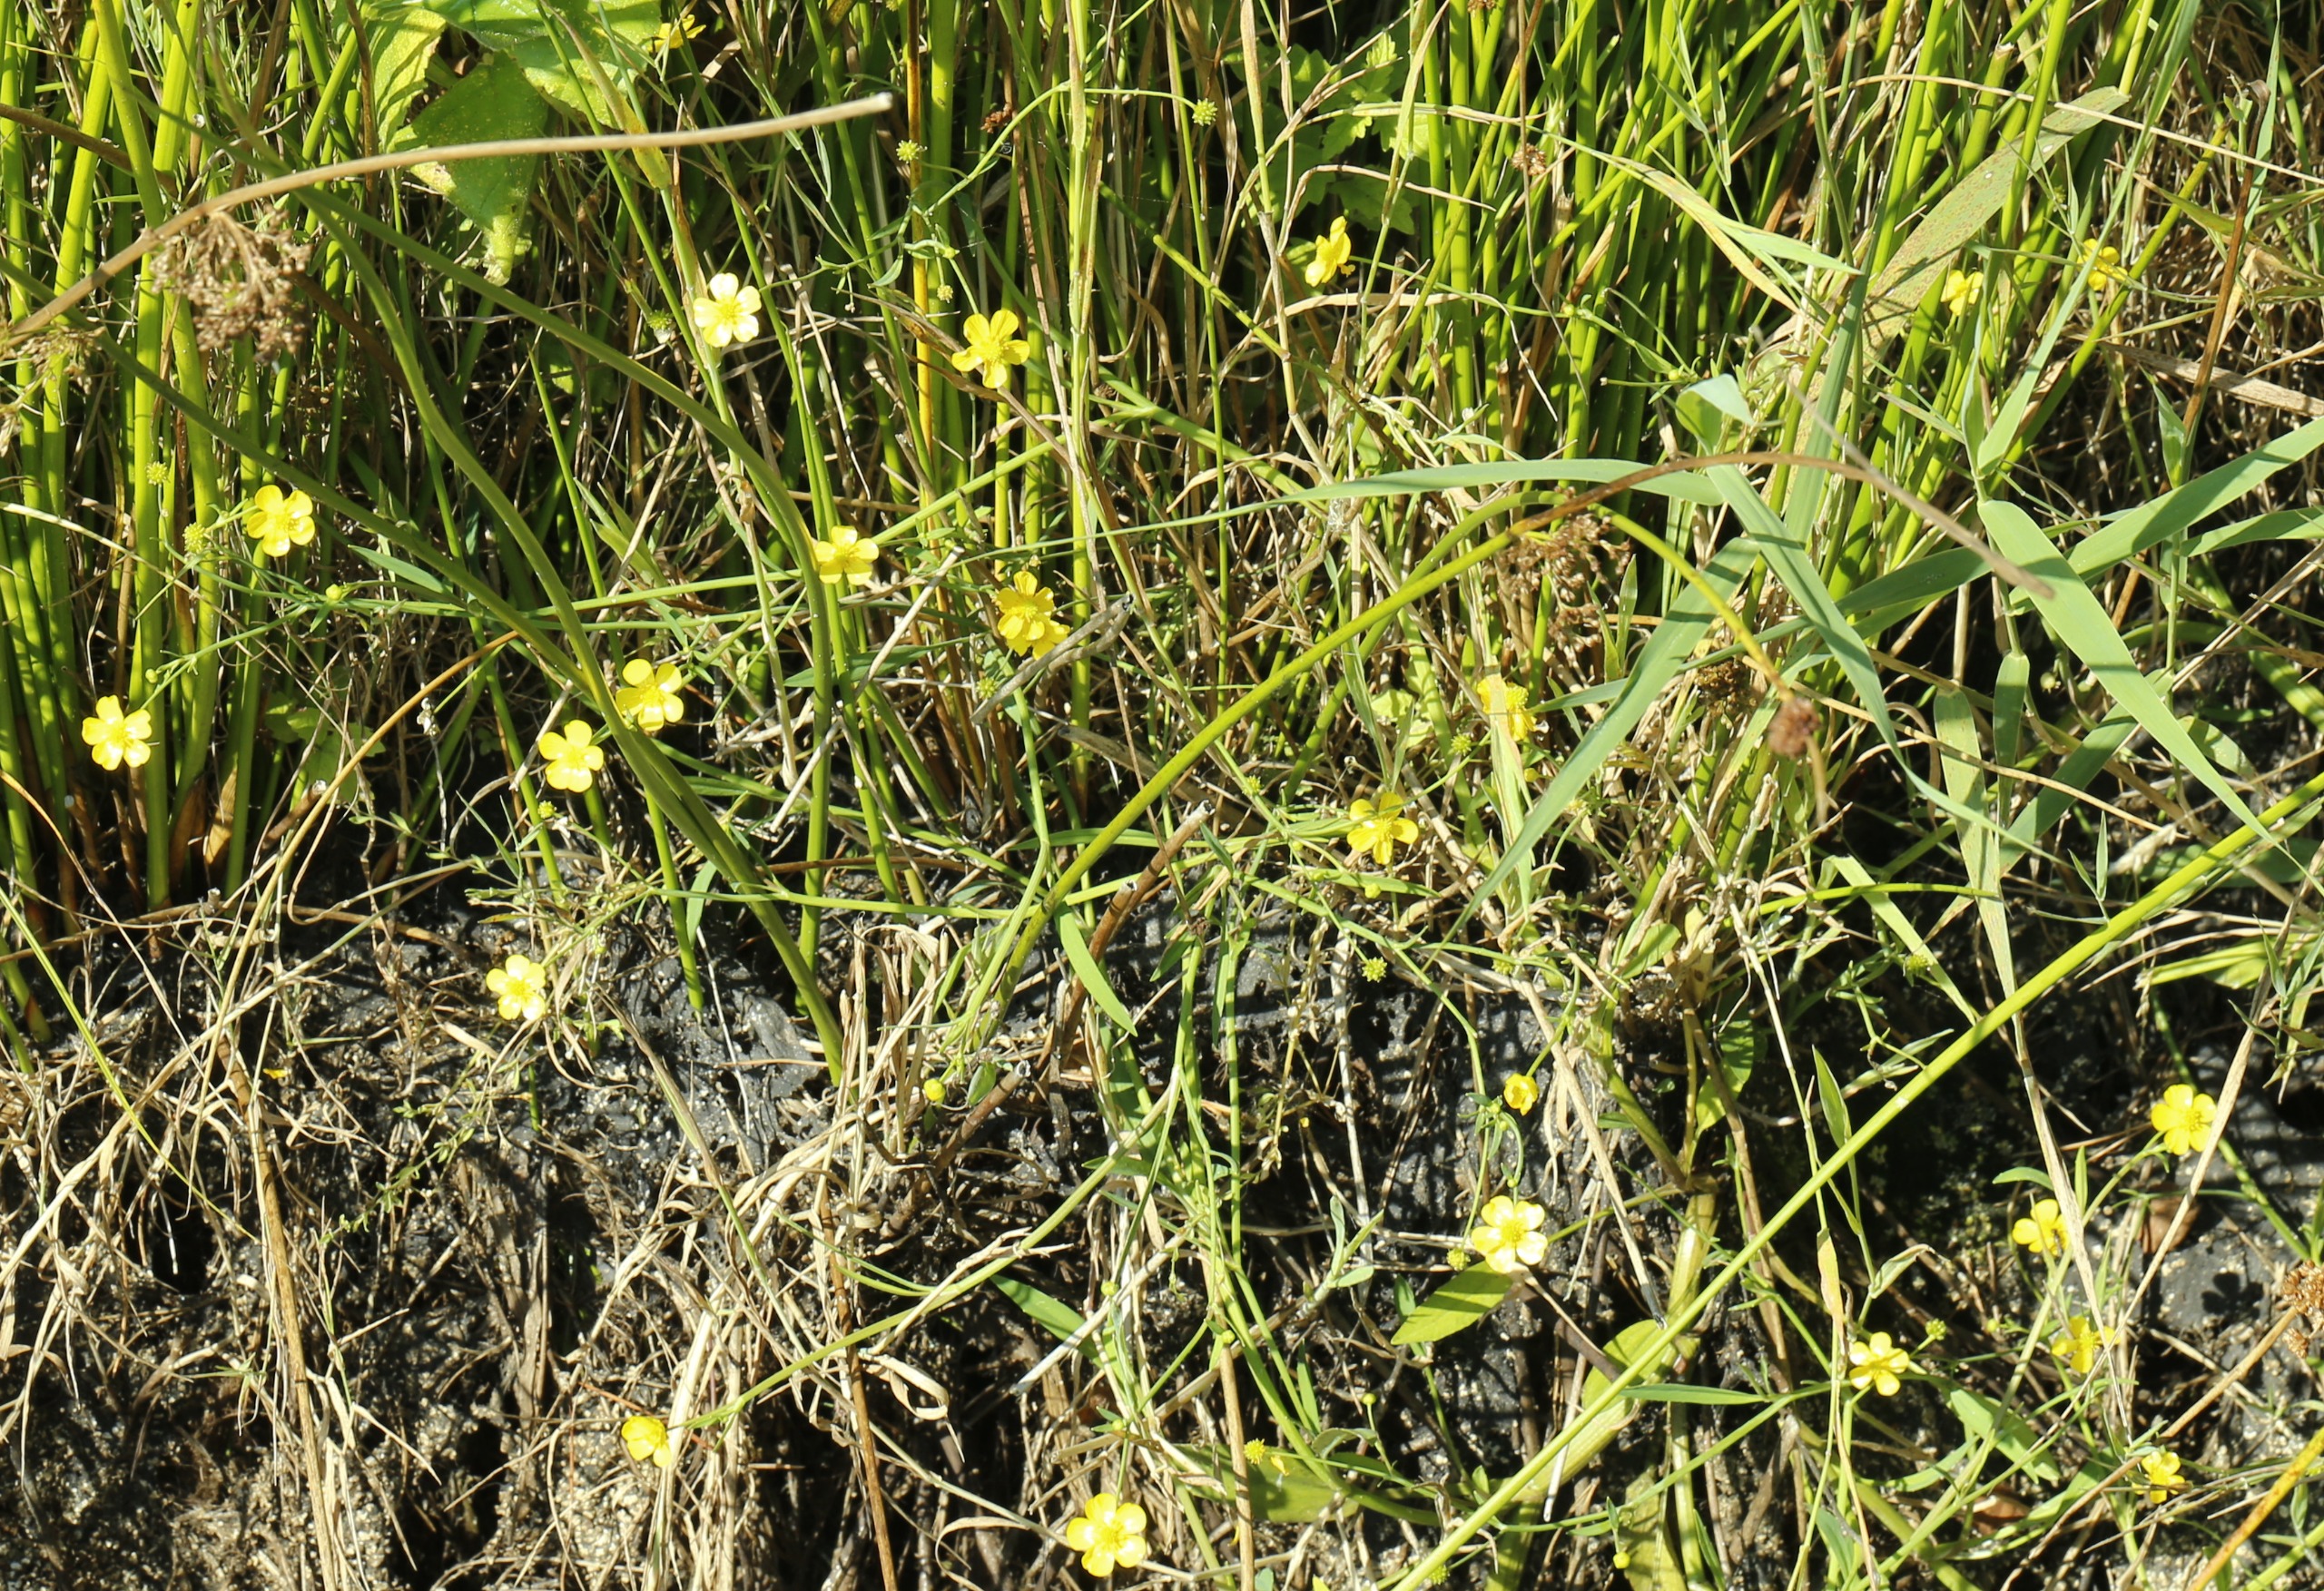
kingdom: Plantae
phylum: Tracheophyta
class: Magnoliopsida
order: Ranunculales
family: Ranunculaceae
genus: Ranunculus
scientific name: Ranunculus flammula
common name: Kær-ranunkel
